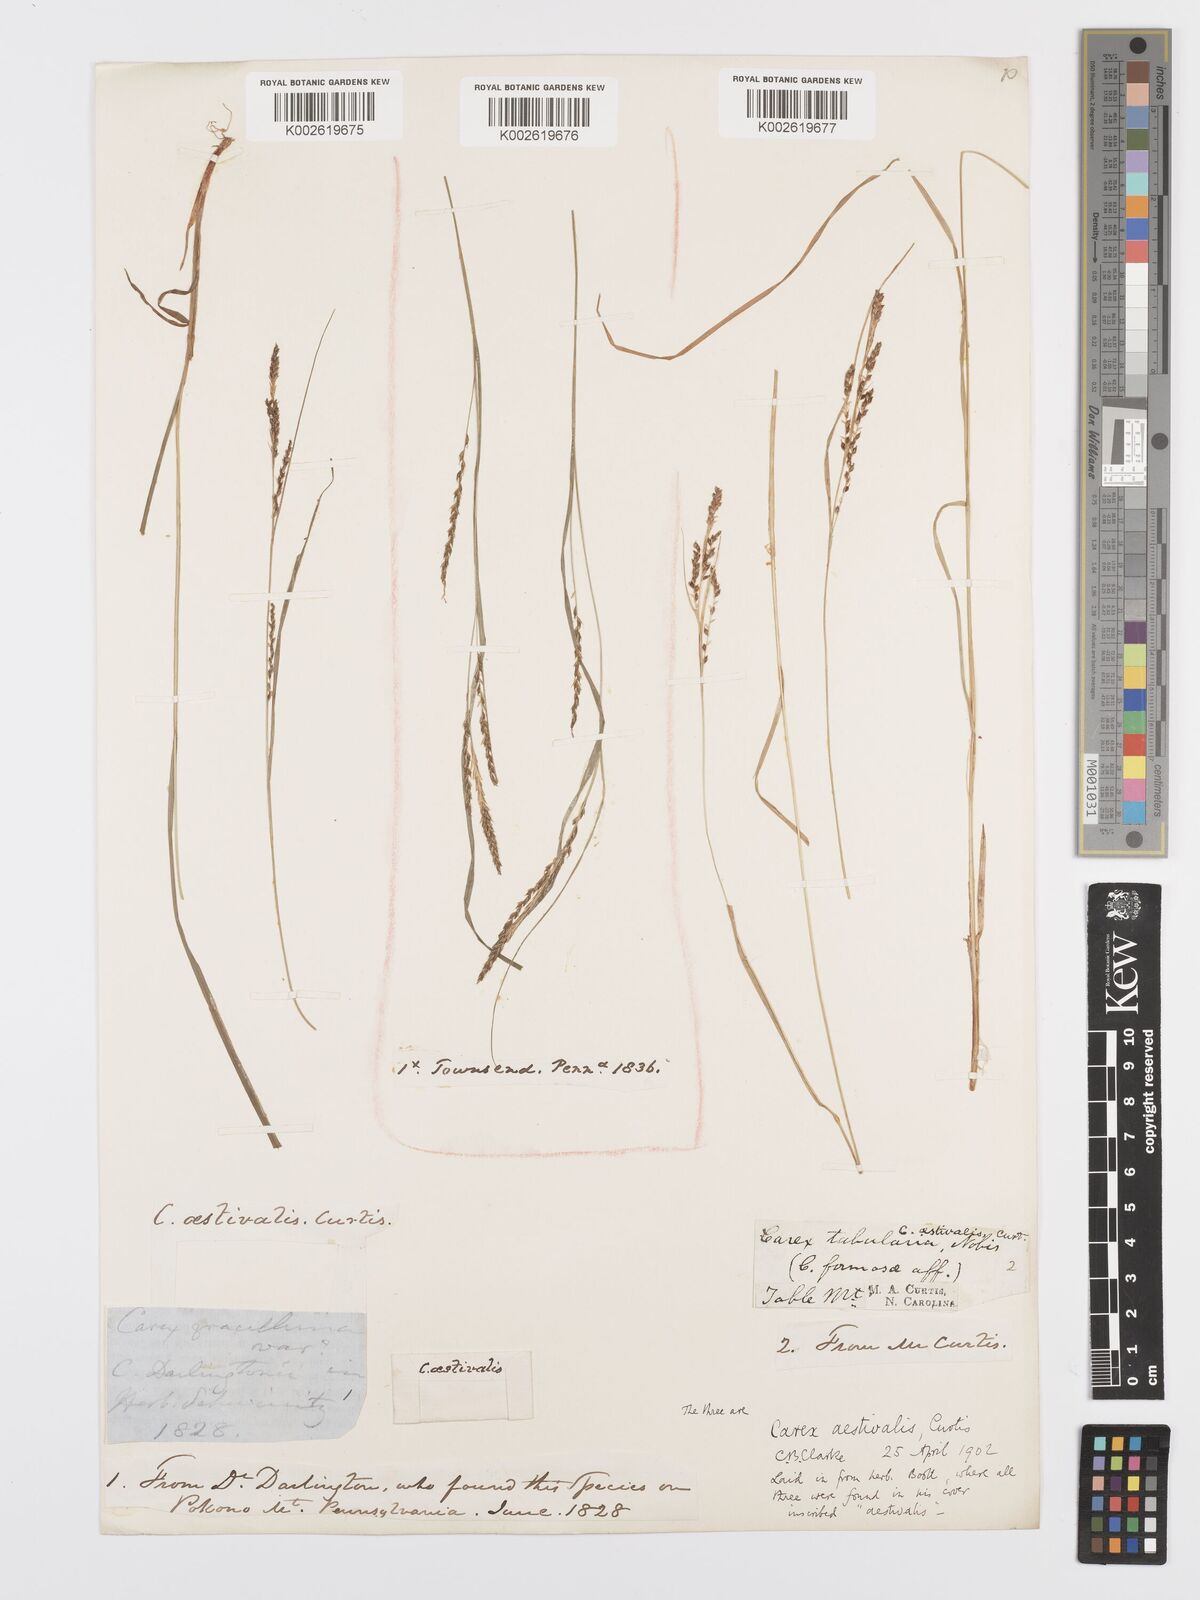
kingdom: Plantae
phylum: Tracheophyta
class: Liliopsida
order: Poales
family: Cyperaceae
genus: Carex
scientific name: Carex aestivalis
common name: Summer sedge
